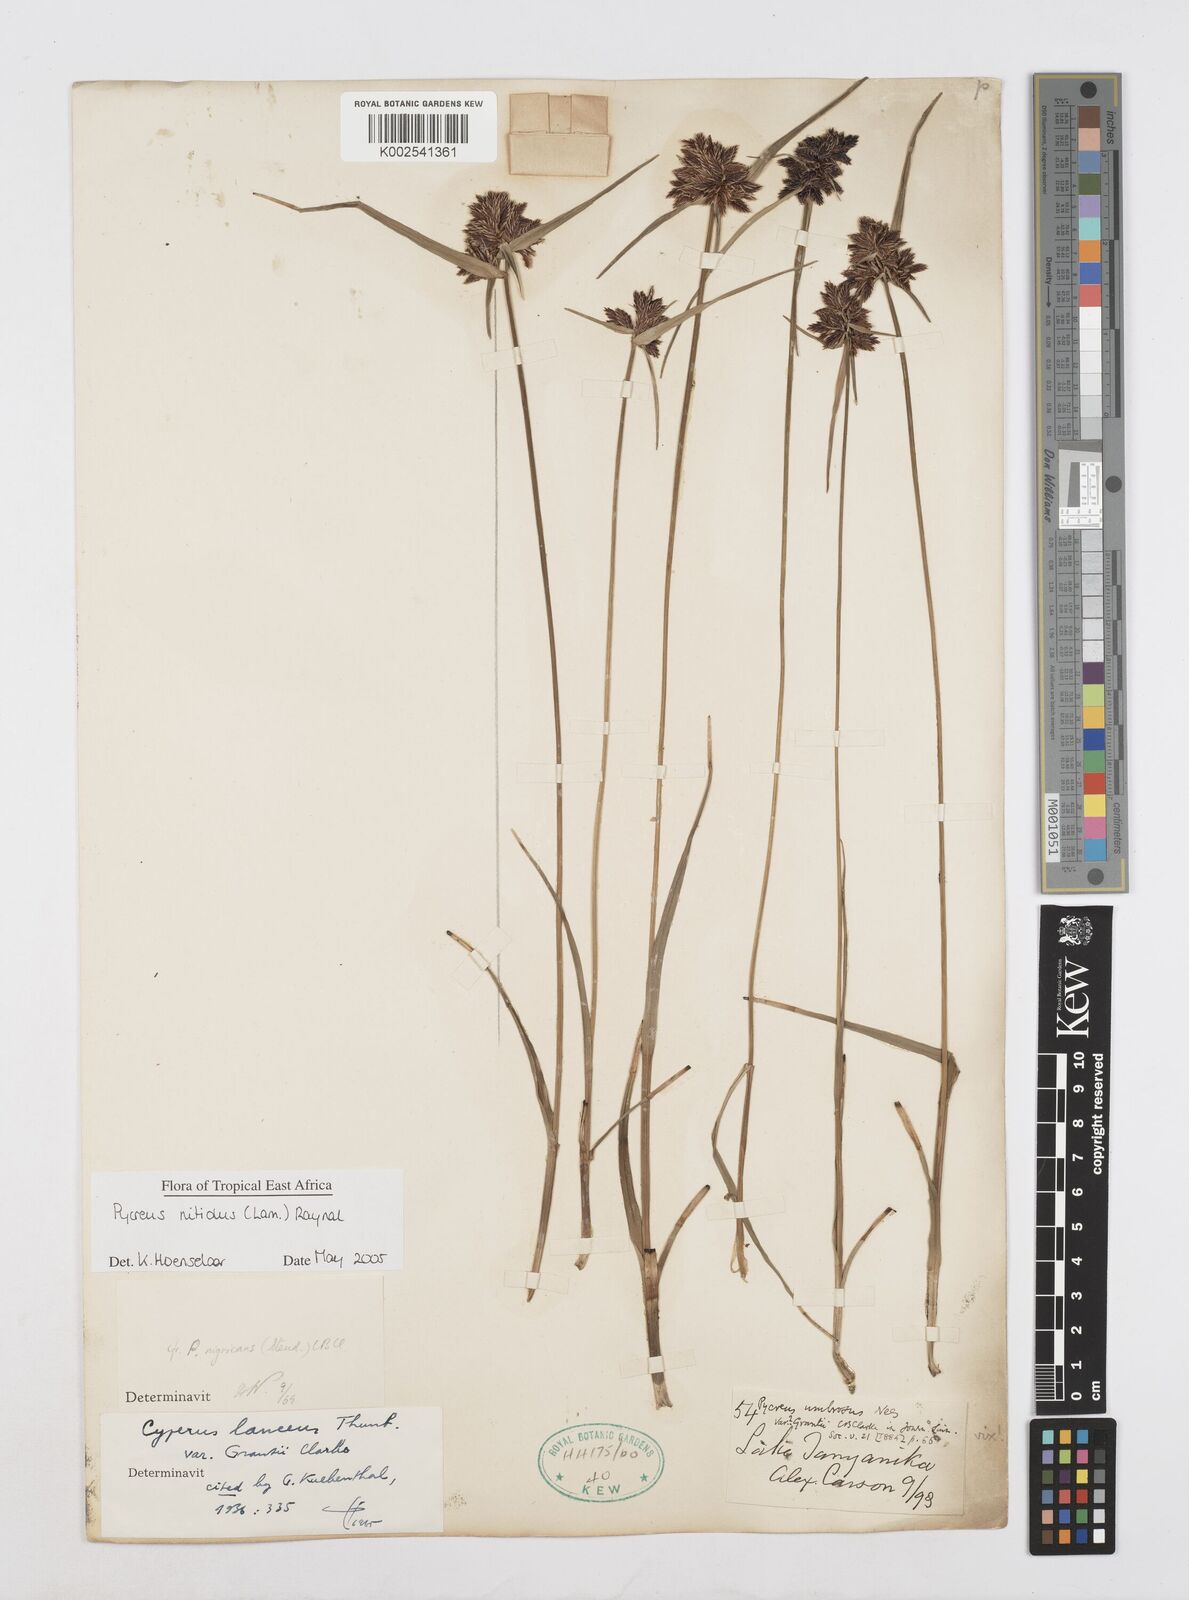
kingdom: Plantae
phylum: Tracheophyta
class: Liliopsida
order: Poales
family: Cyperaceae
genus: Cyperus
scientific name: Cyperus nitidus
